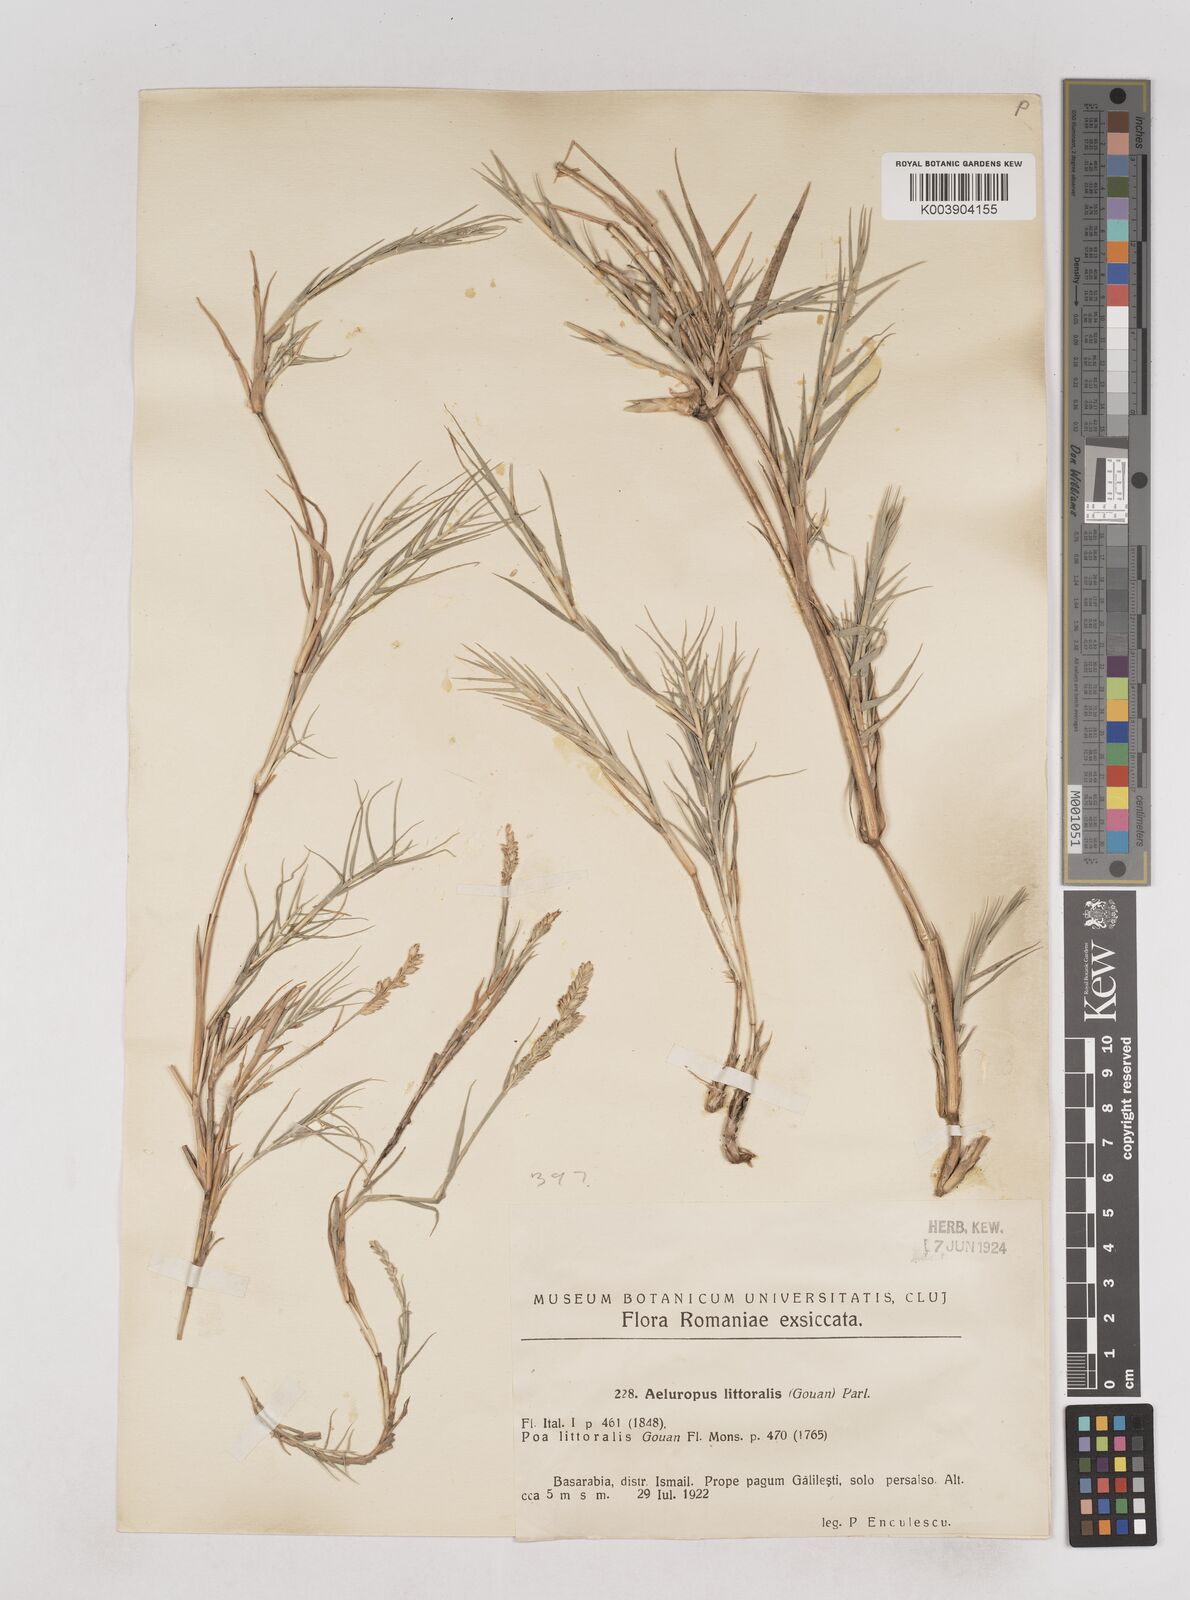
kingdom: Plantae
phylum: Tracheophyta
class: Liliopsida
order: Poales
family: Poaceae
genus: Aeluropus
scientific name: Aeluropus littoralis
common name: Indian walnut
